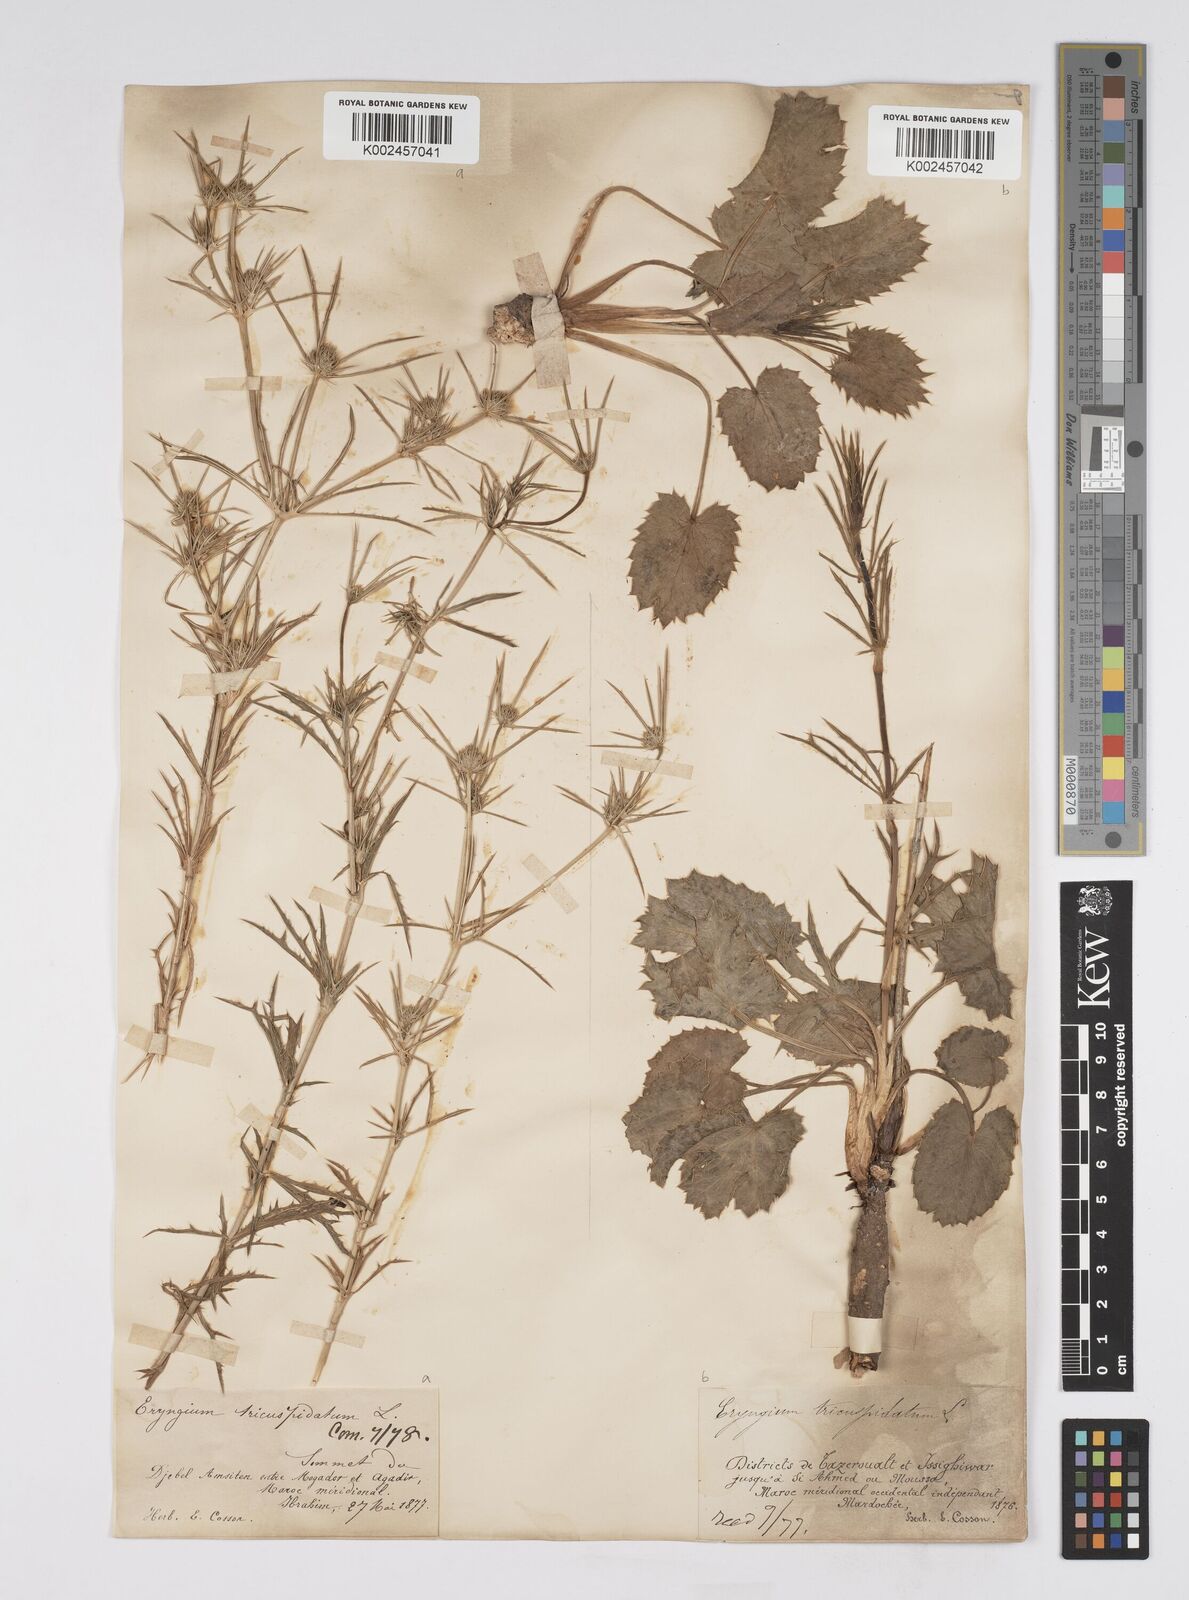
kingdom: Plantae
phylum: Tracheophyta
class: Magnoliopsida
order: Apiales
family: Apiaceae
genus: Eryngium
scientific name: Eryngium tricuspidatum
